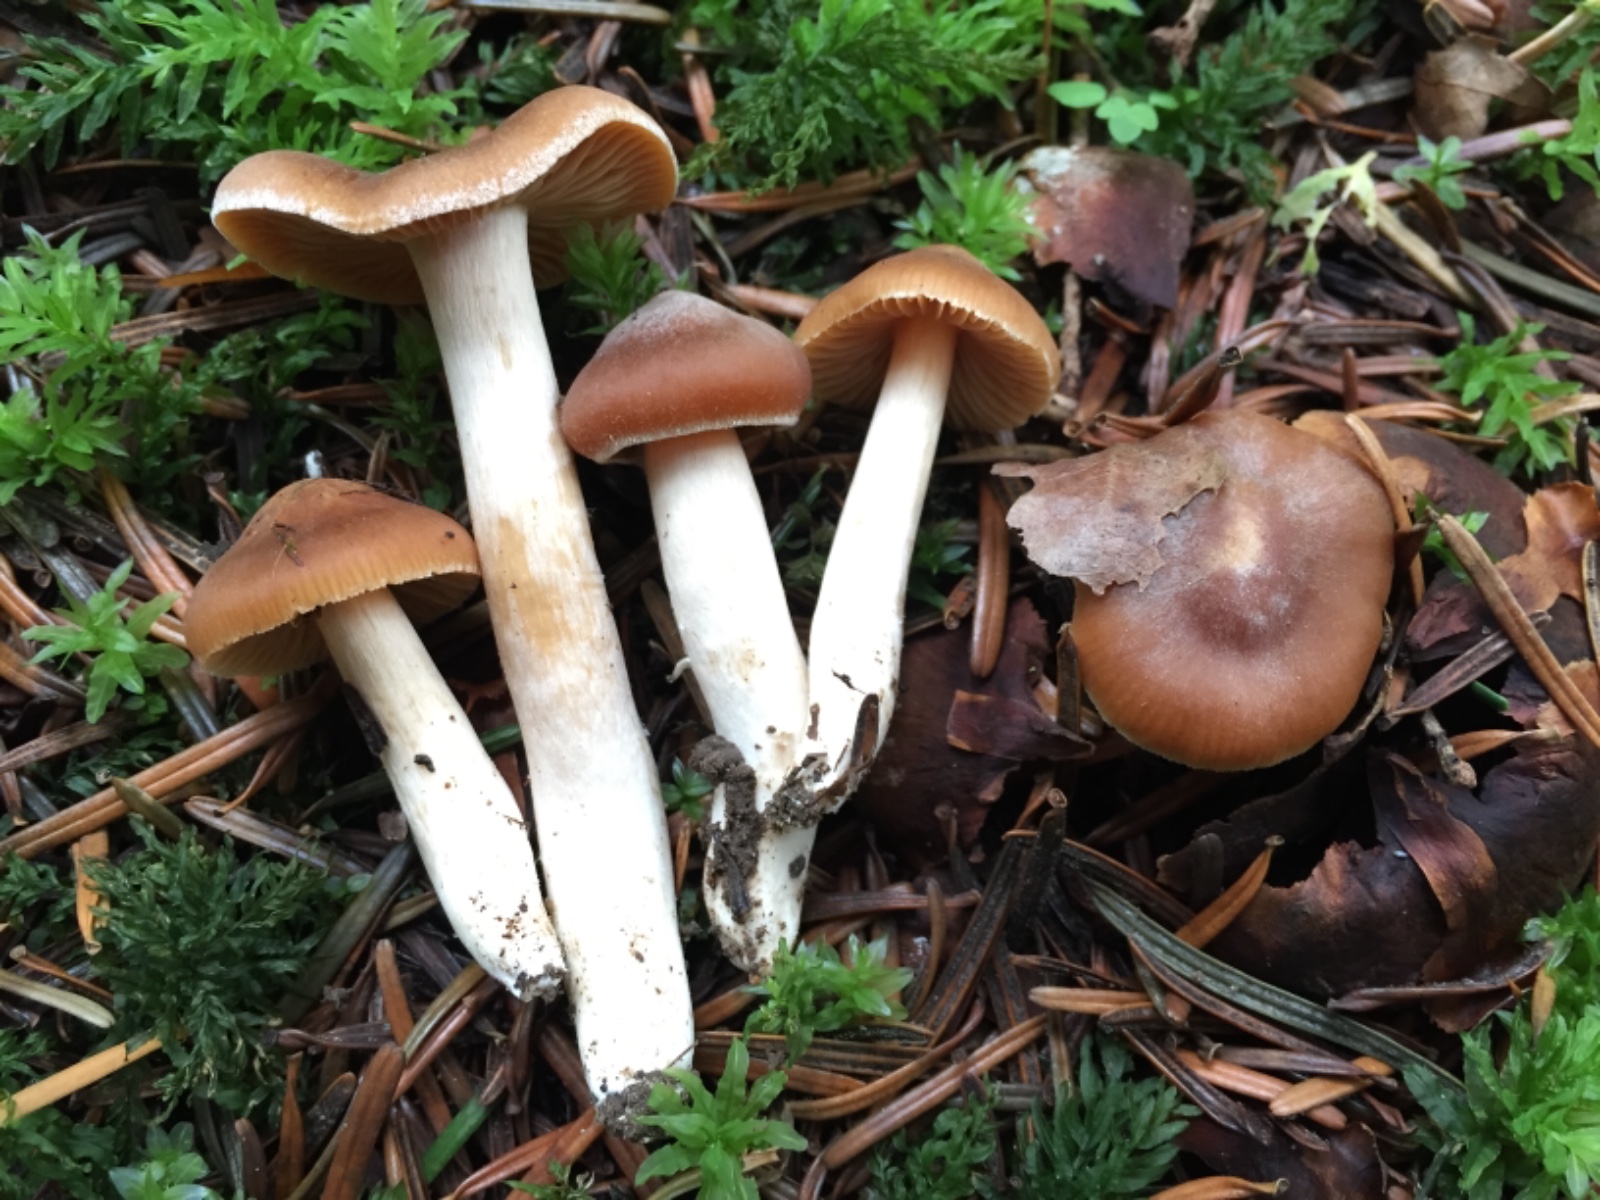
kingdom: Fungi
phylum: Basidiomycota
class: Agaricomycetes
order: Agaricales
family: Cortinariaceae
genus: Cortinarius
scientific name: Cortinarius
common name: jod-slørhat
